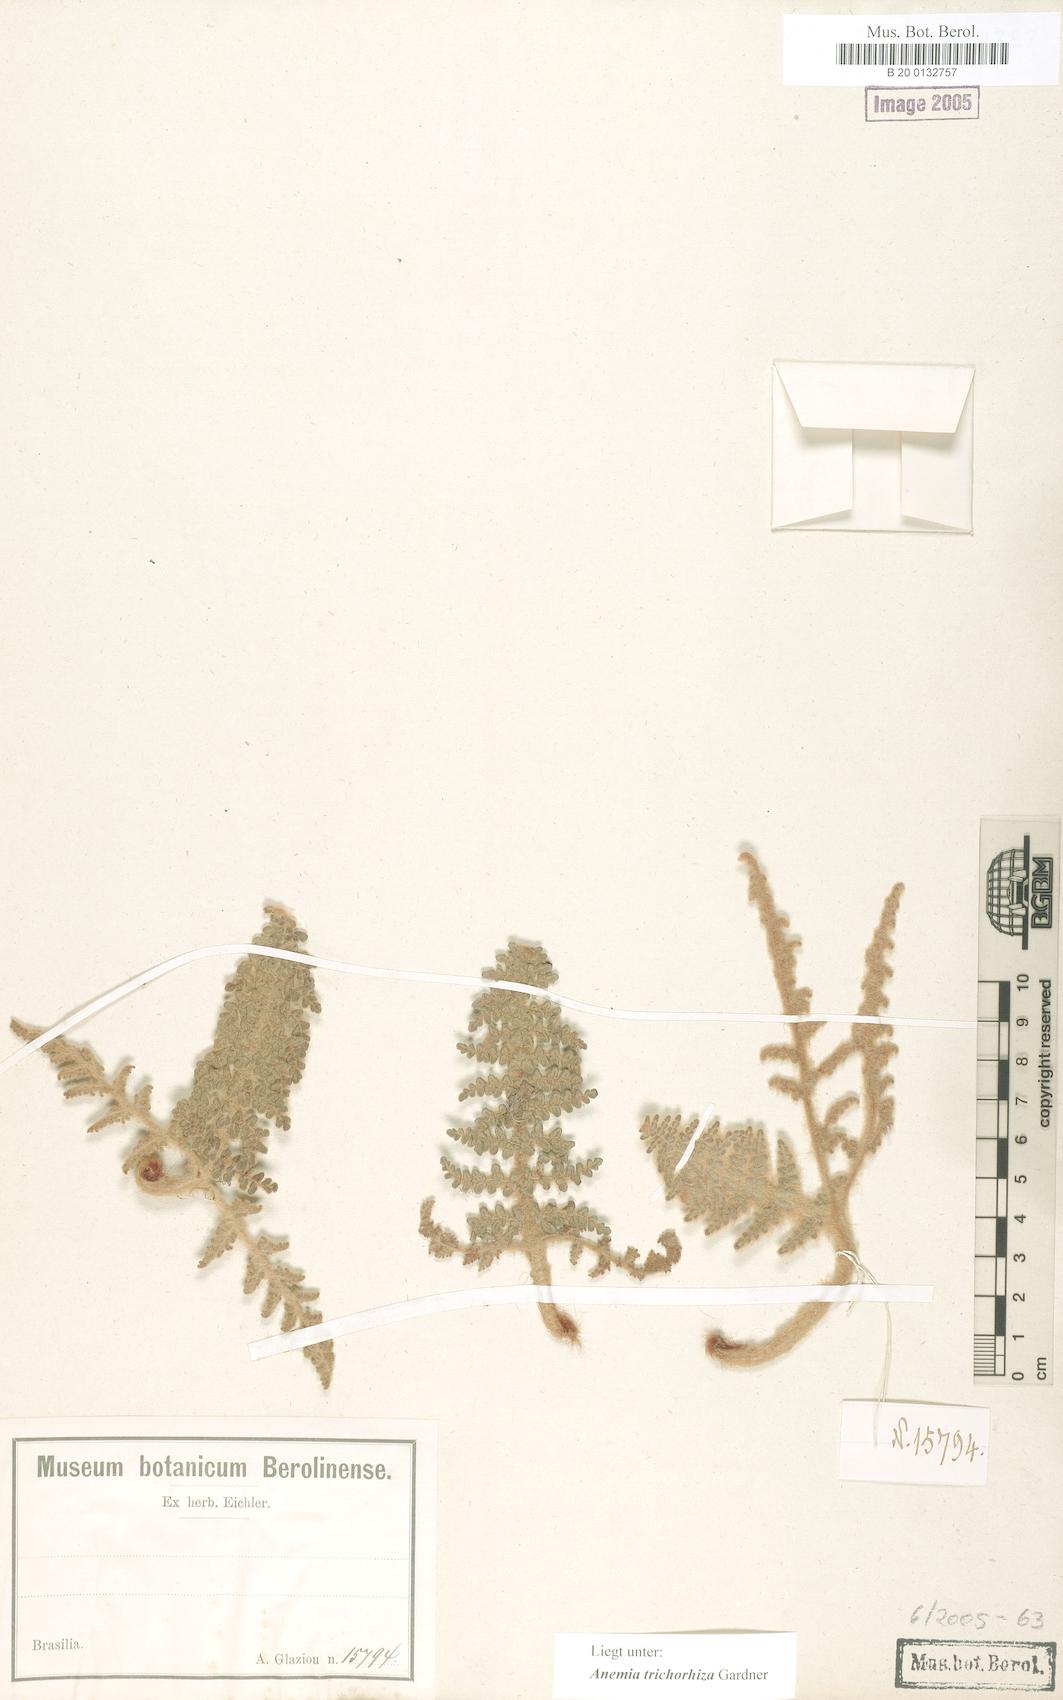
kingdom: Plantae
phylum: Tracheophyta
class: Polypodiopsida
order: Schizaeales
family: Anemiaceae
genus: Anemia
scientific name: Anemia trichorhiza
